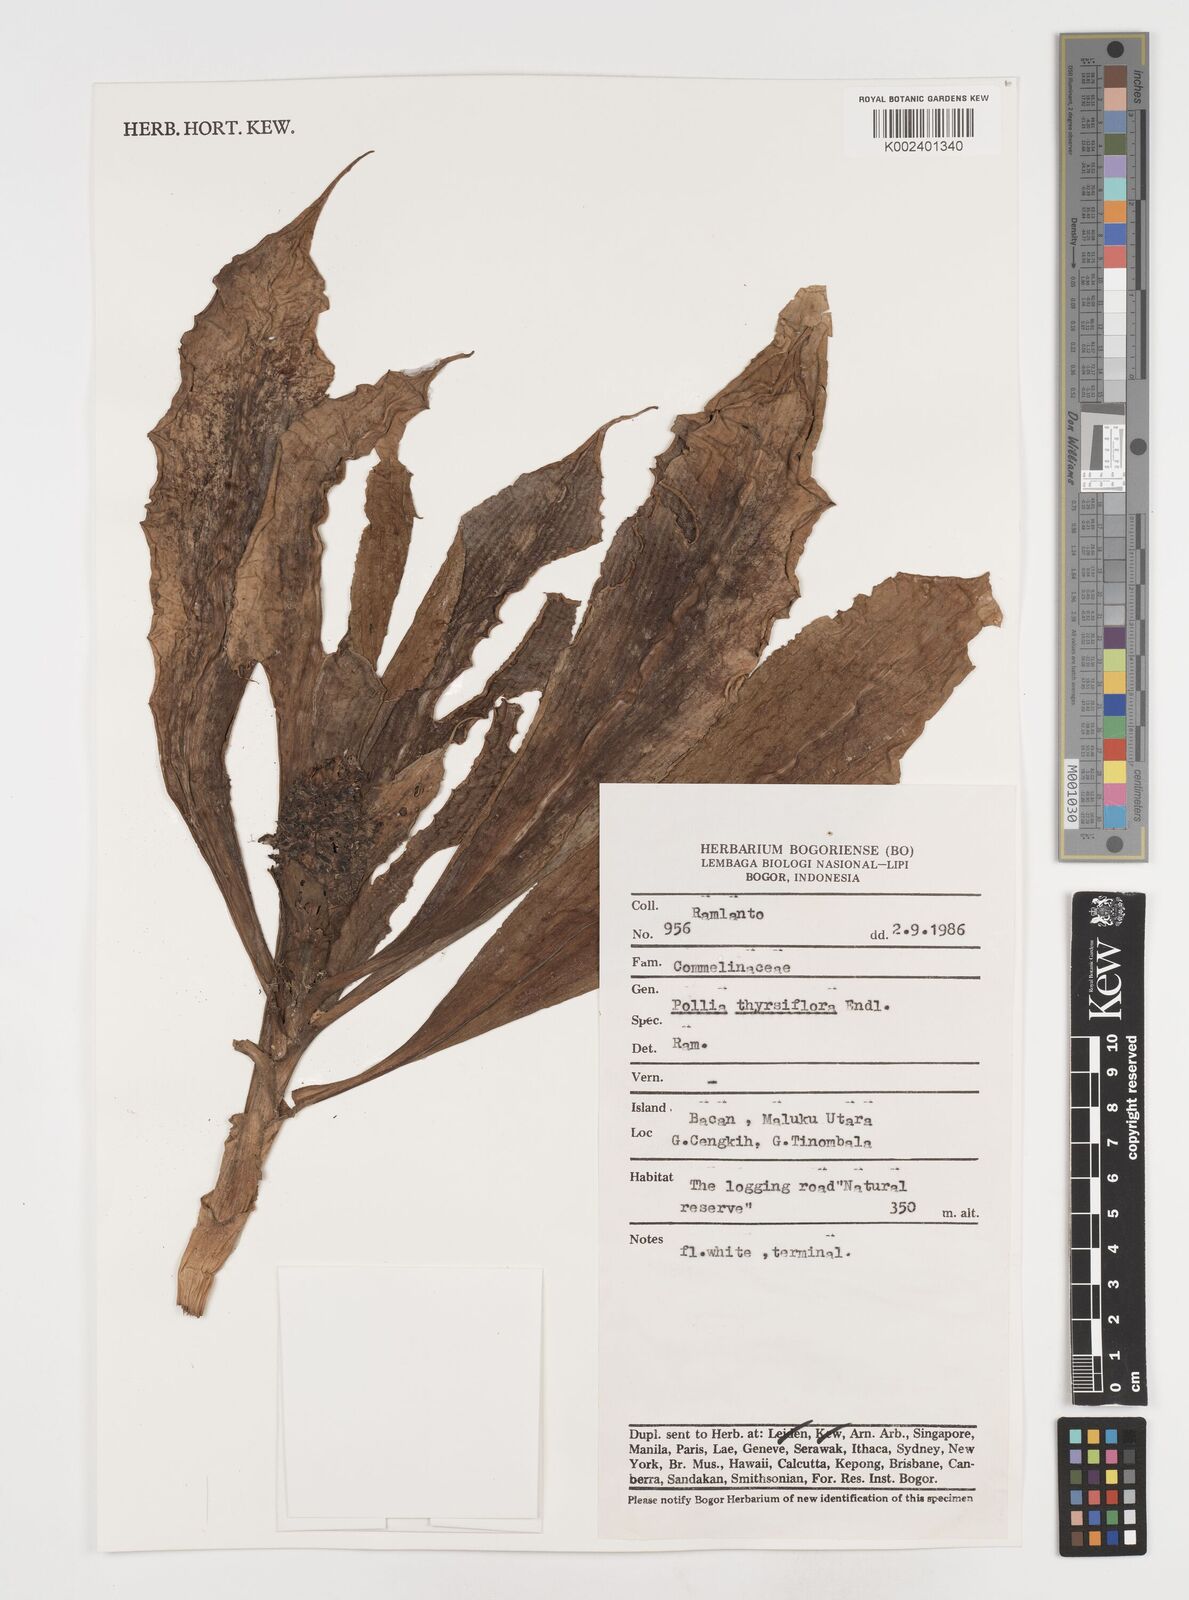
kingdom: Plantae
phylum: Tracheophyta
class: Liliopsida
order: Commelinales
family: Commelinaceae
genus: Pollia
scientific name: Pollia thyrsiflora
